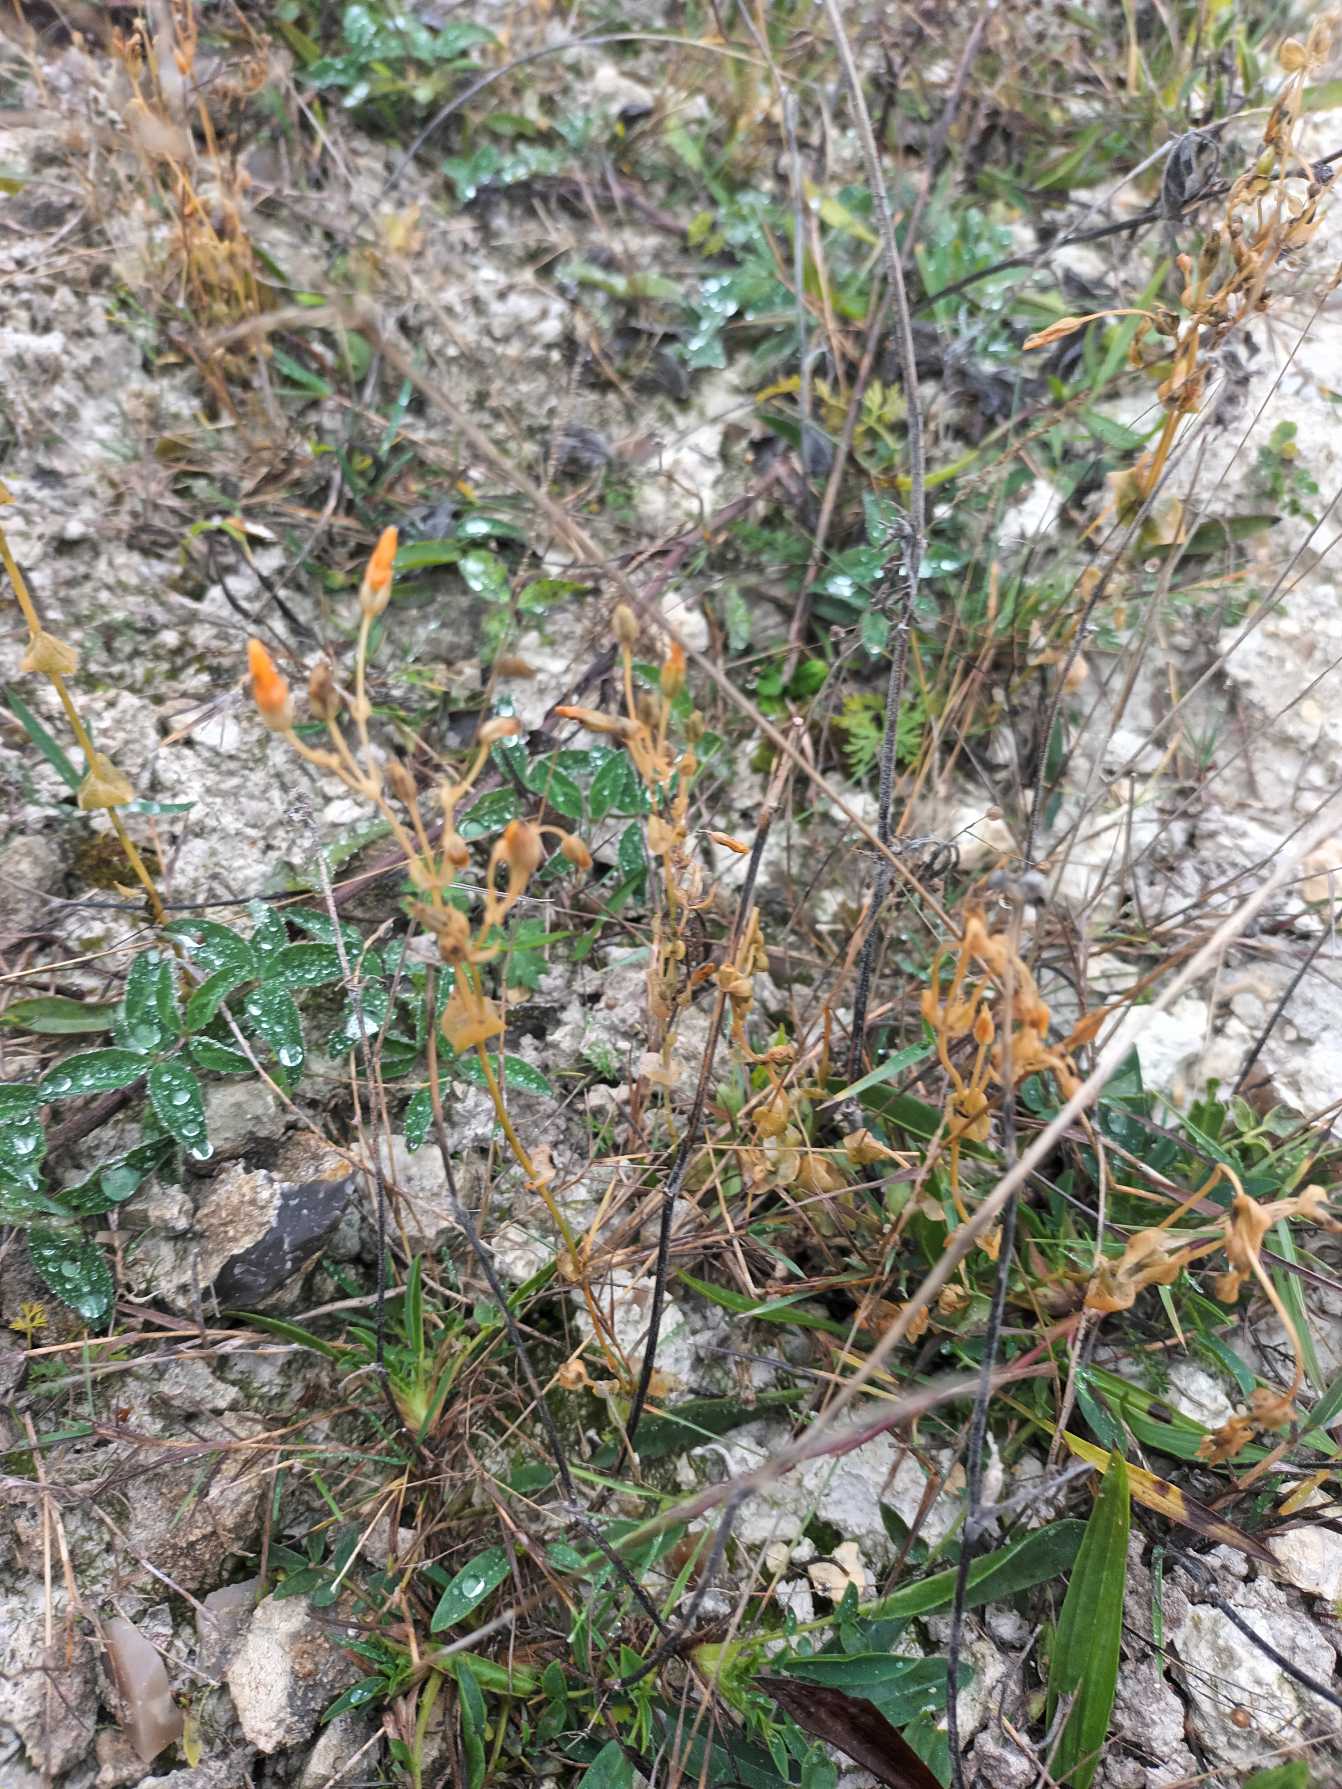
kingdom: Plantae
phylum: Tracheophyta
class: Magnoliopsida
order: Gentianales
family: Gentianaceae
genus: Blackstonia
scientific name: Blackstonia perfoliata
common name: Almindelig gyldenurt
